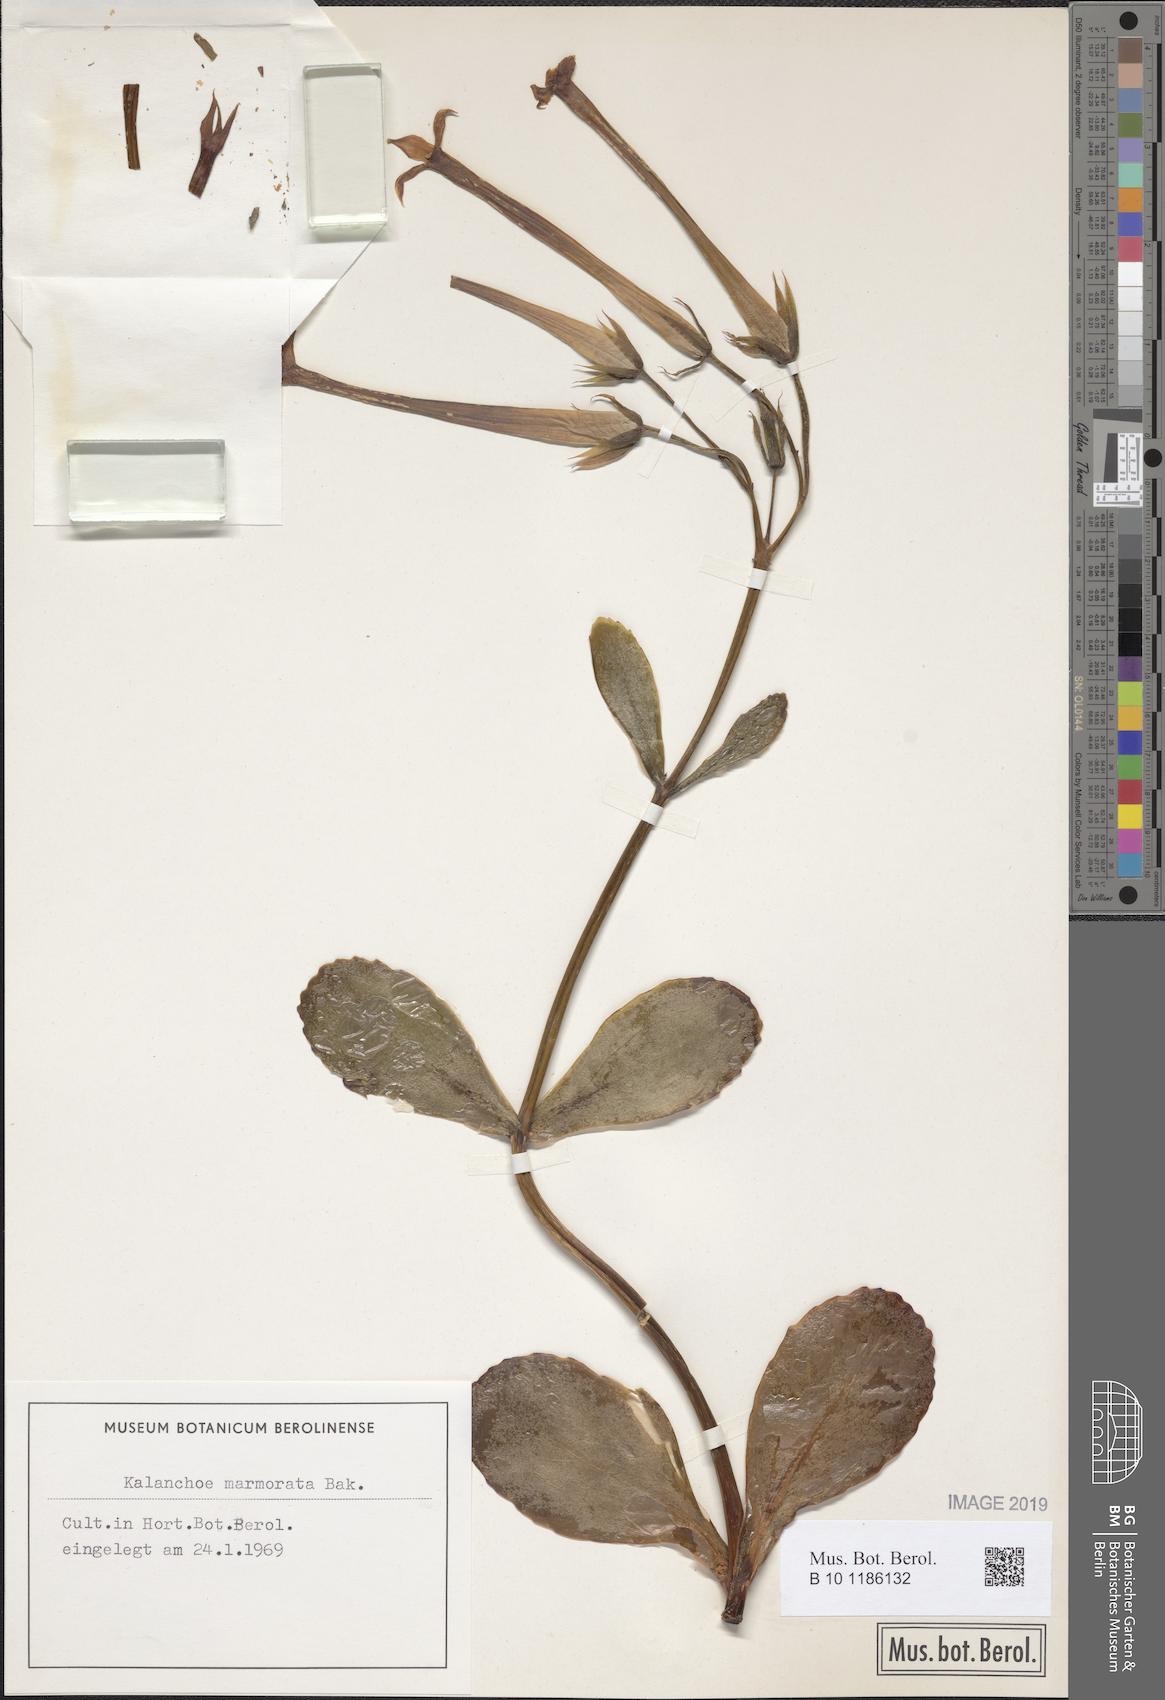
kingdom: Plantae
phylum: Tracheophyta
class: Magnoliopsida
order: Saxifragales
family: Crassulaceae
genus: Kalanchoe
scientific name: Kalanchoe marmorata
